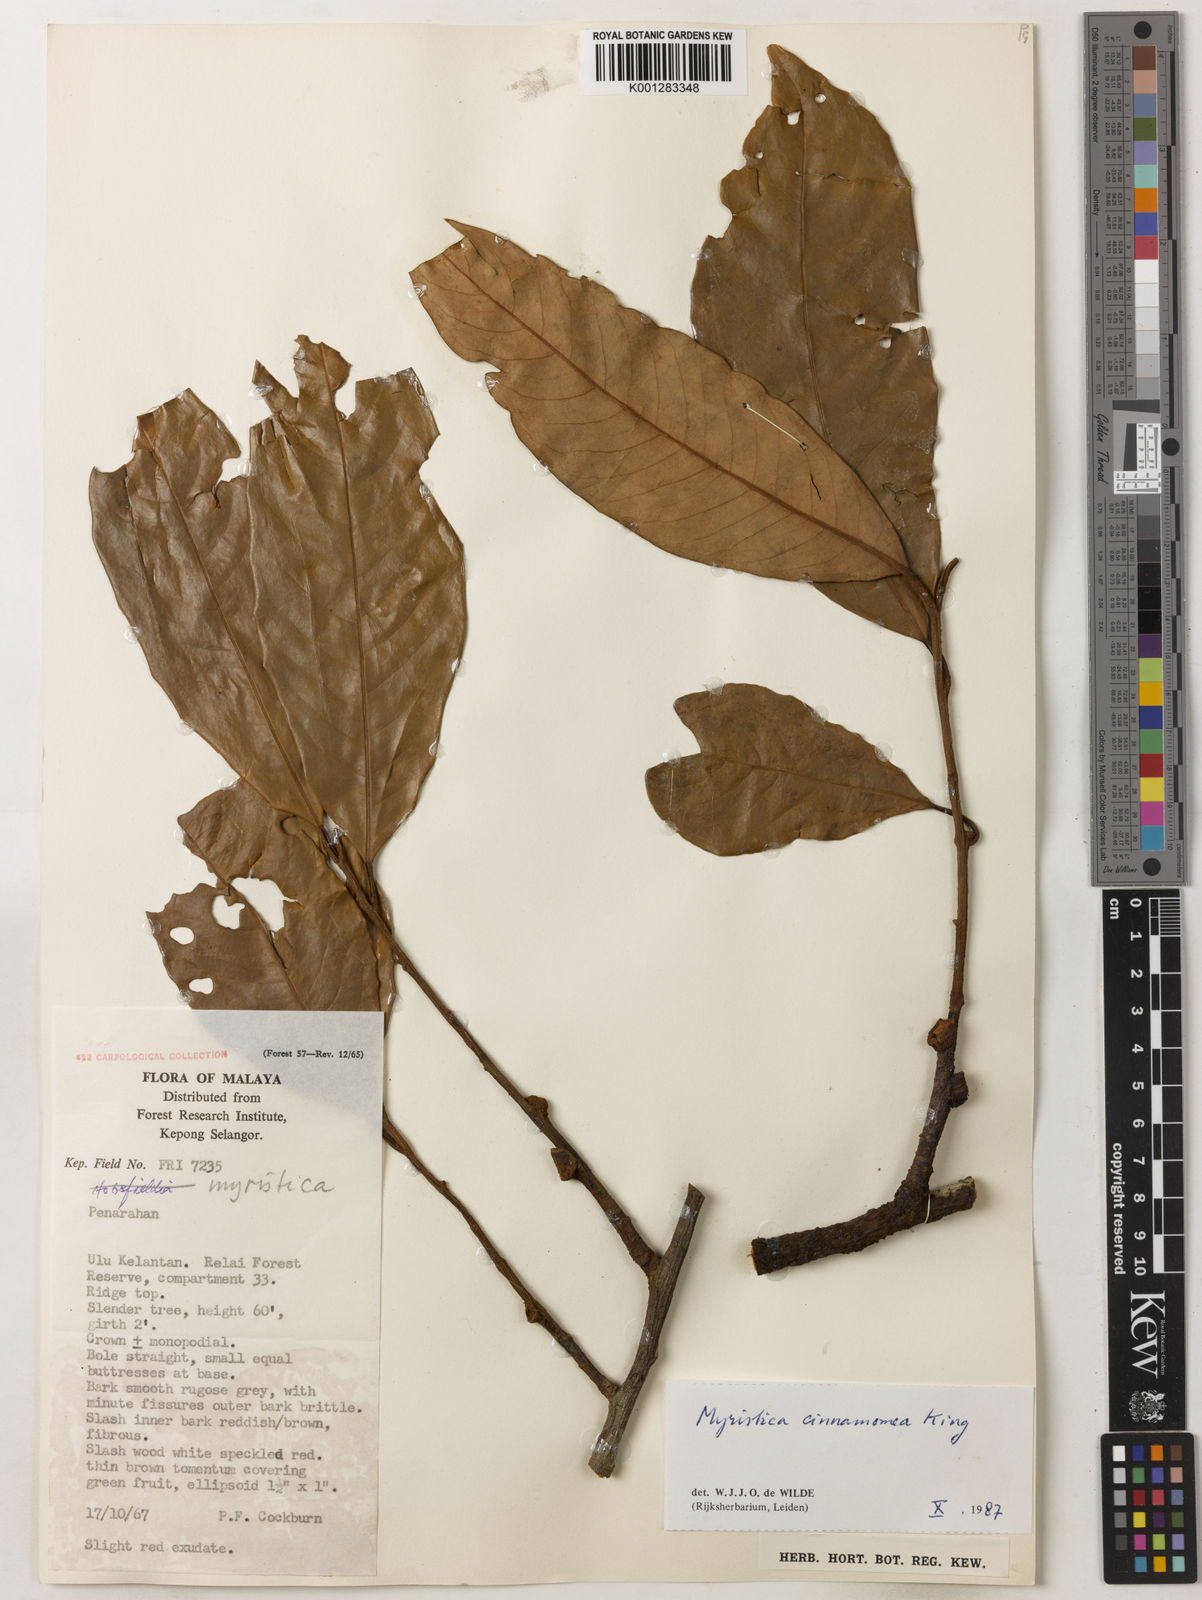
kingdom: Plantae
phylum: Tracheophyta
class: Magnoliopsida
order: Magnoliales
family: Myristicaceae
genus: Myristica
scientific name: Myristica cinnamomea
